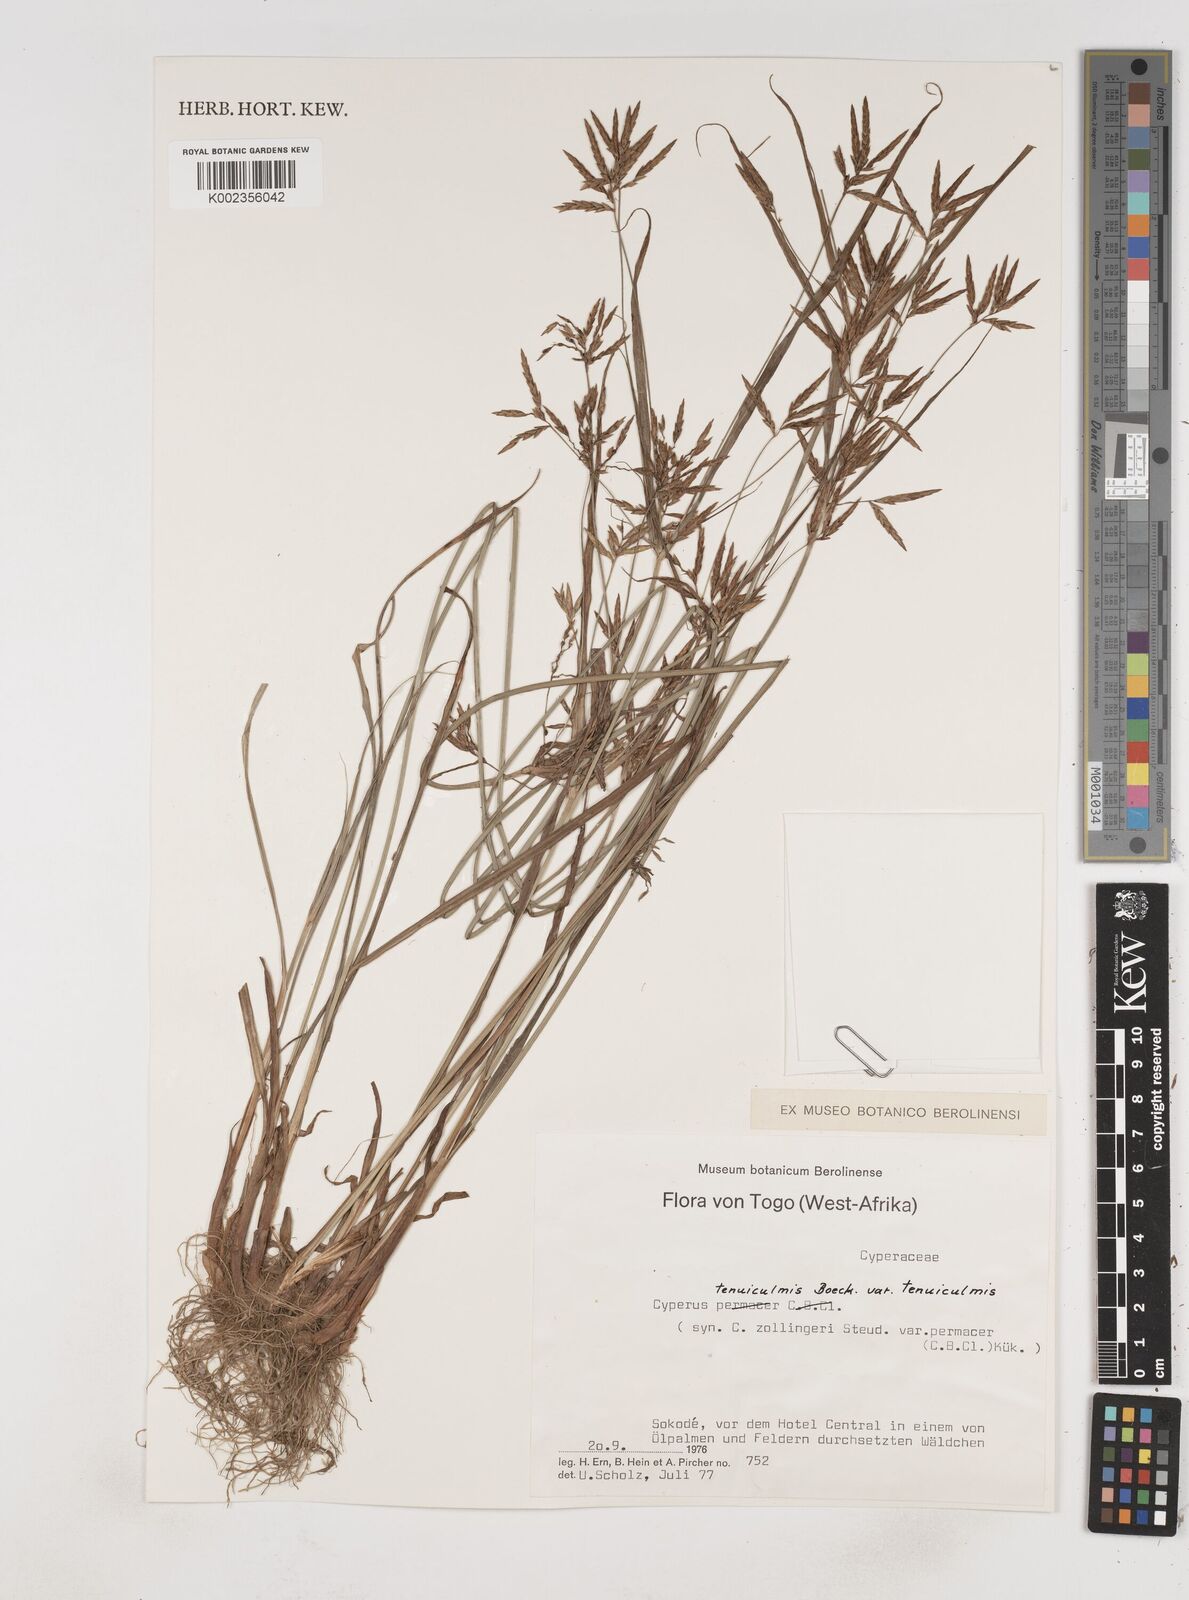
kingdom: Plantae
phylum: Tracheophyta
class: Liliopsida
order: Poales
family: Cyperaceae
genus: Cyperus
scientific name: Cyperus tenuiculmis
